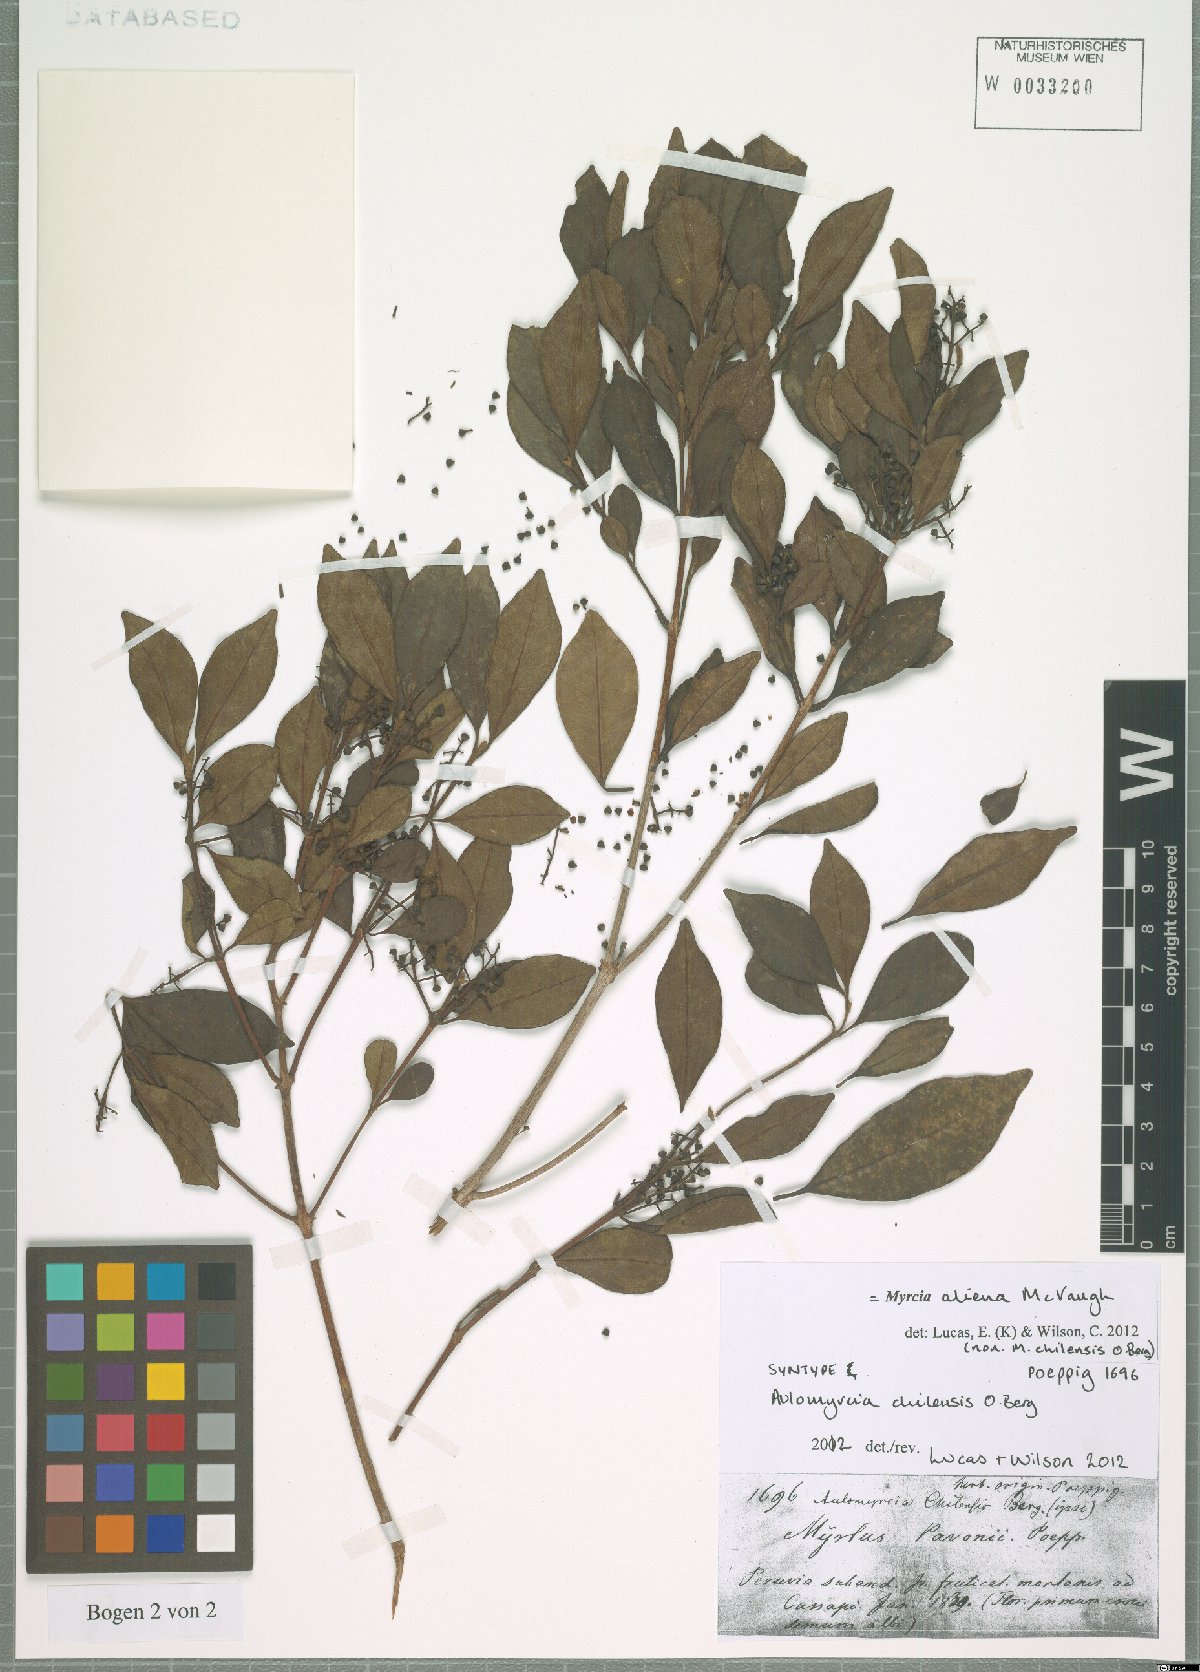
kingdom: Plantae
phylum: Tracheophyta
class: Magnoliopsida
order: Myrtales
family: Myrtaceae
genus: Myrcia
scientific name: Myrcia aliena
